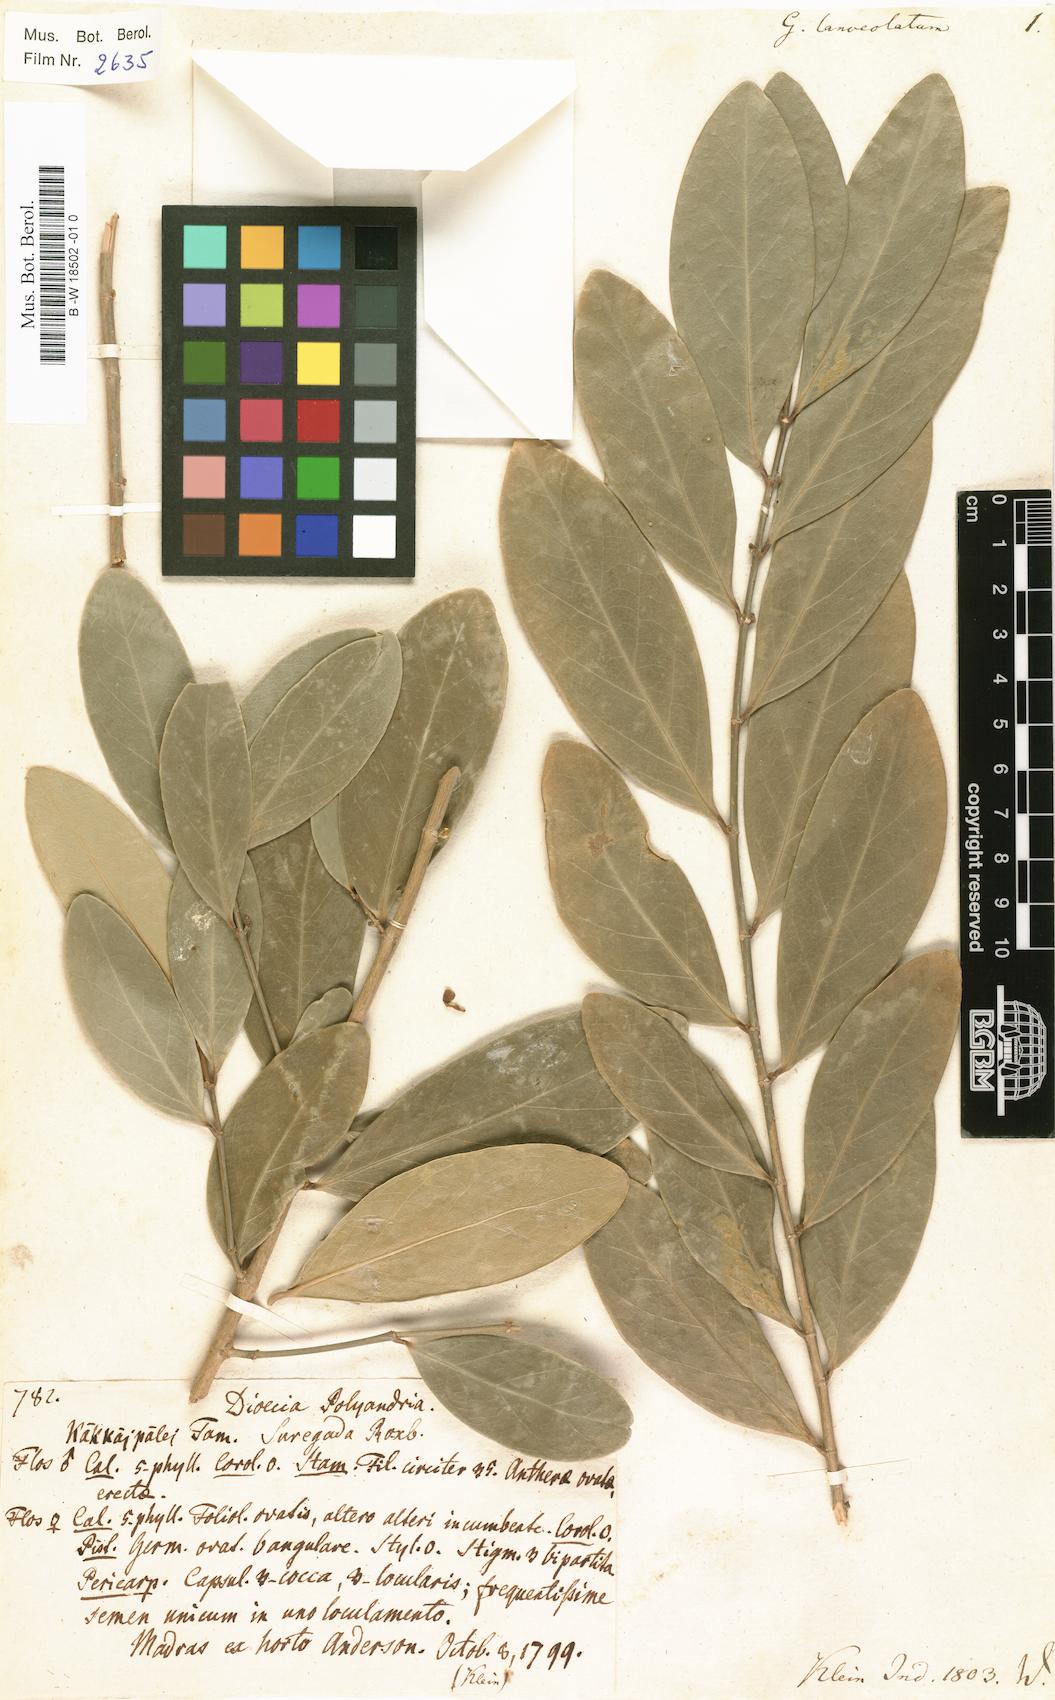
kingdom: Plantae
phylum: Tracheophyta
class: Magnoliopsida
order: Malpighiales
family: Euphorbiaceae
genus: Suregada
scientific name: Suregada lanceolata
